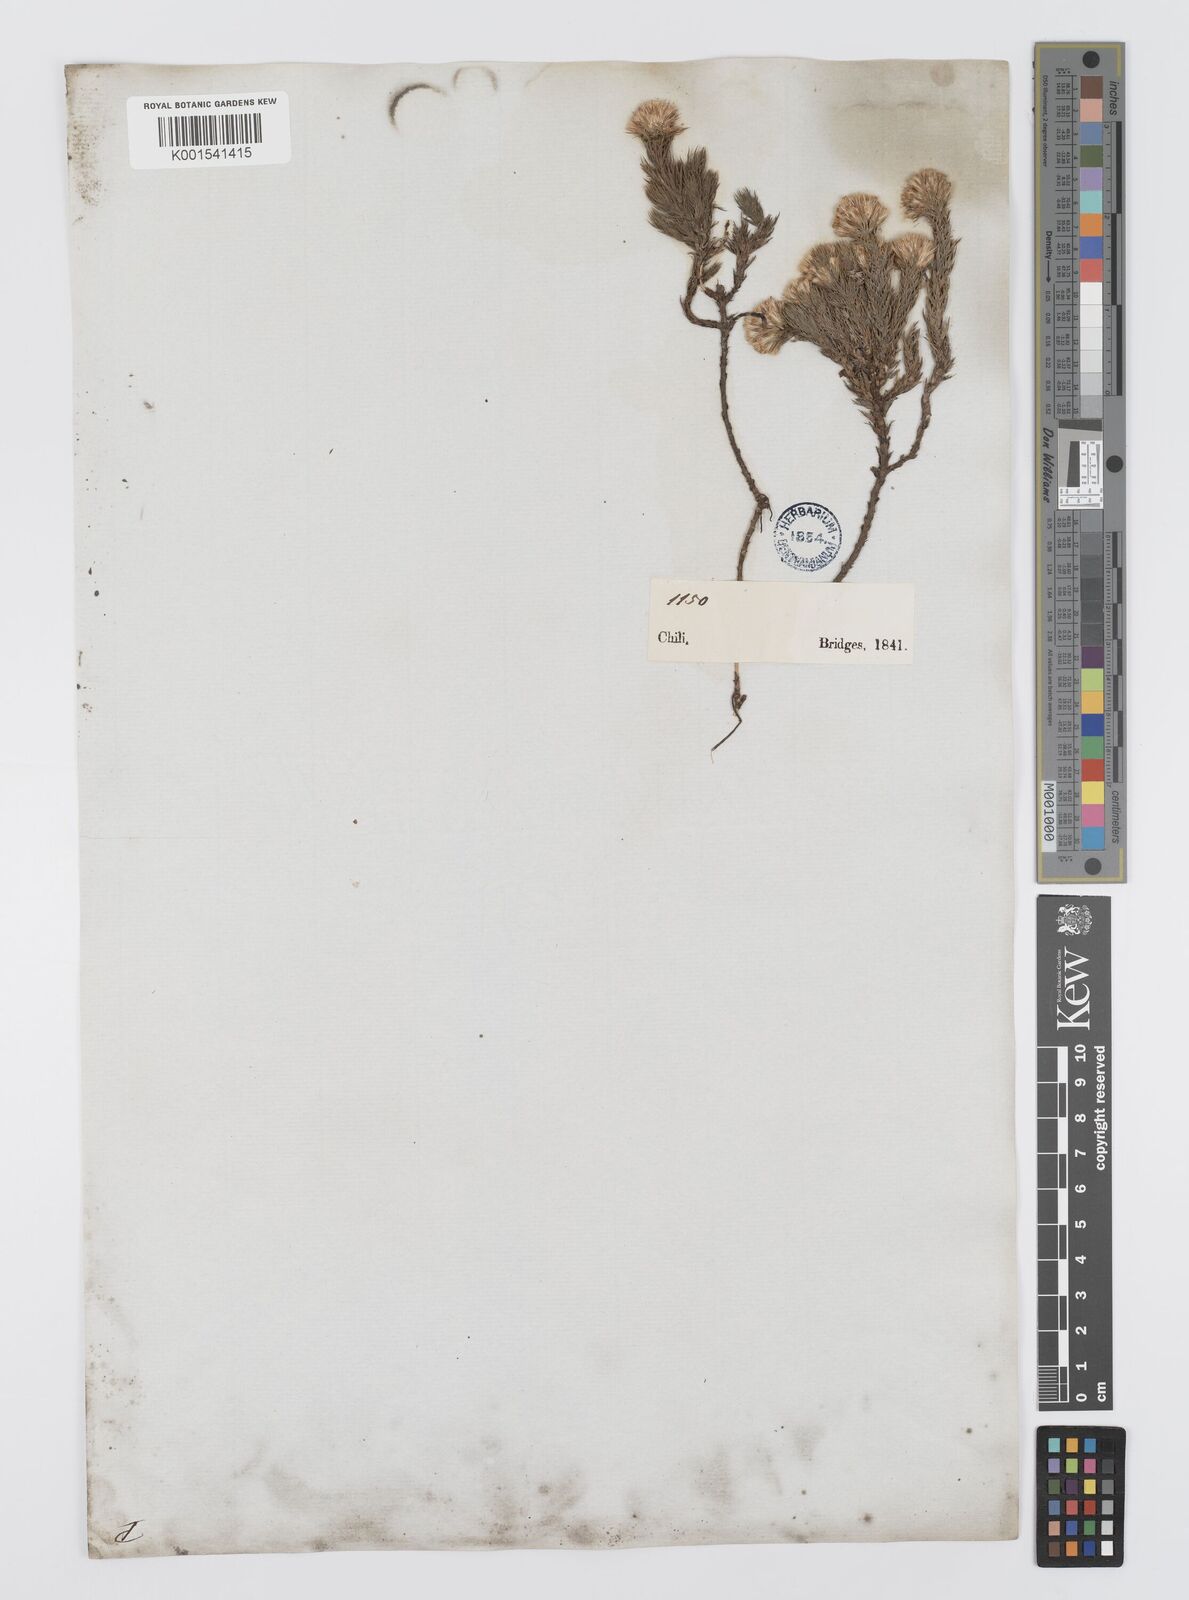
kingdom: Plantae
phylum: Tracheophyta
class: Magnoliopsida
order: Asterales
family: Asteraceae
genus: Nassauvia
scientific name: Nassauvia glomerata
